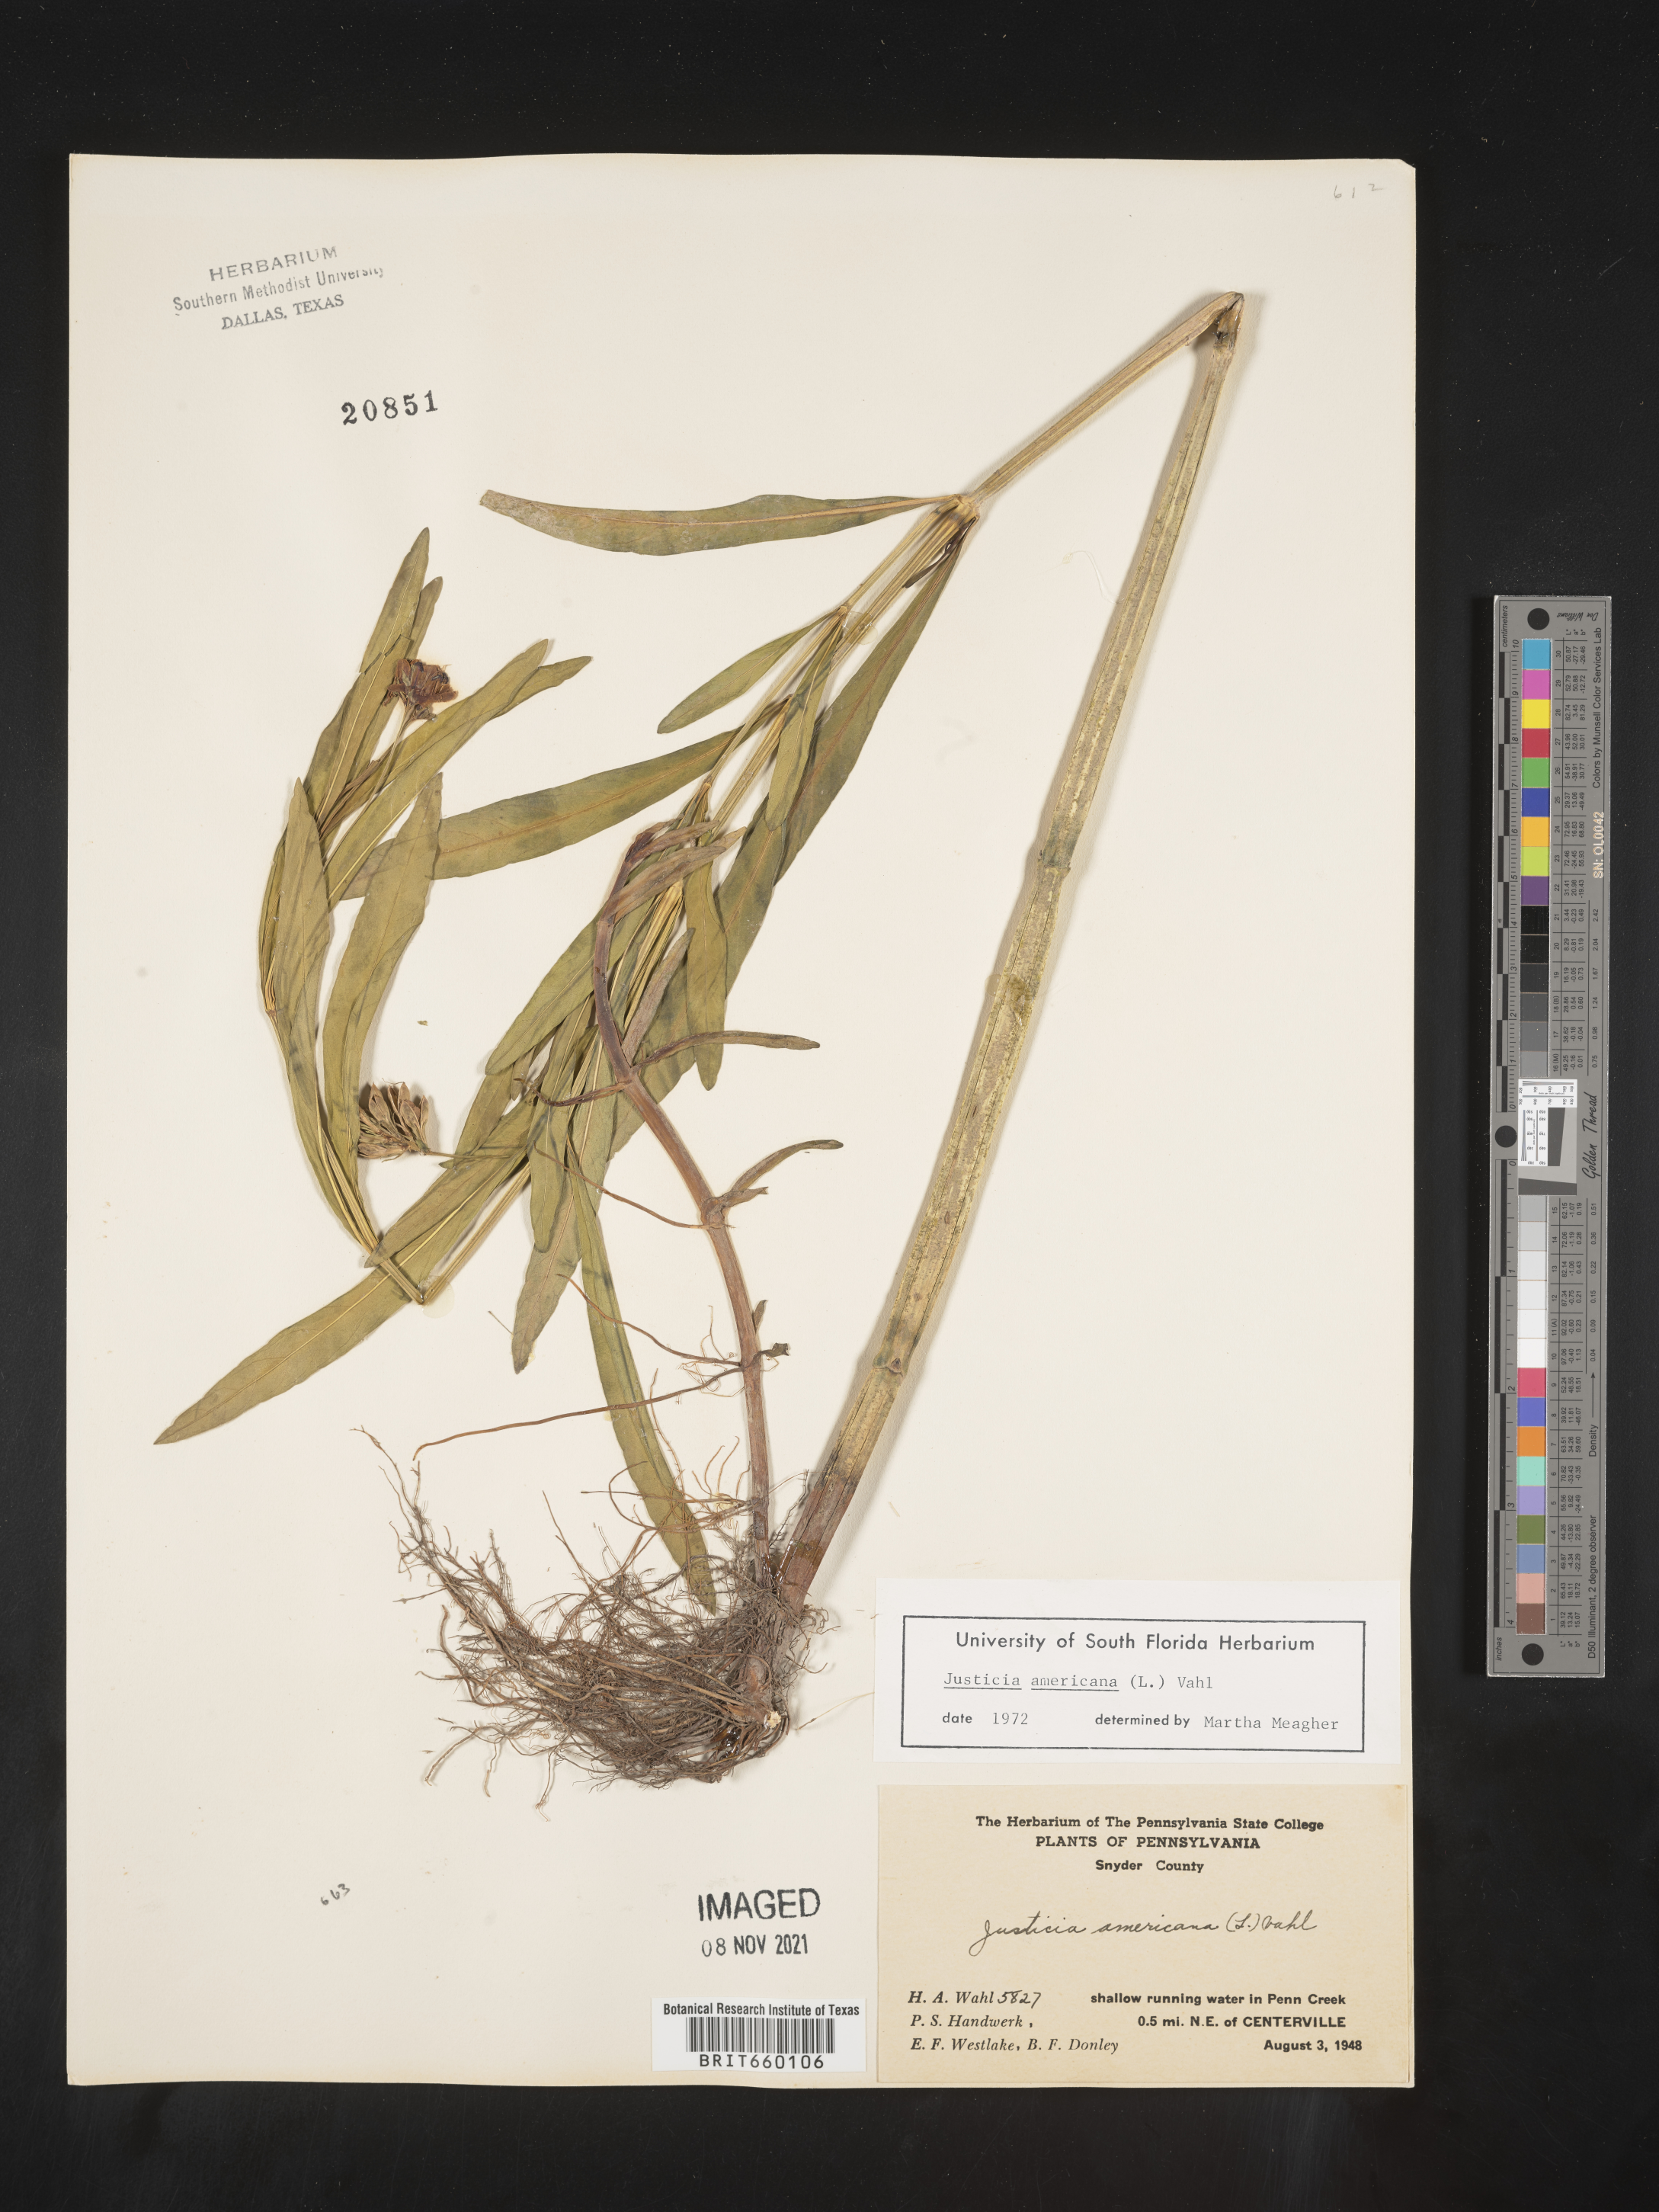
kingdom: Plantae
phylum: Tracheophyta
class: Magnoliopsida
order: Lamiales
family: Acanthaceae
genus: Dianthera
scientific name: Dianthera americana
